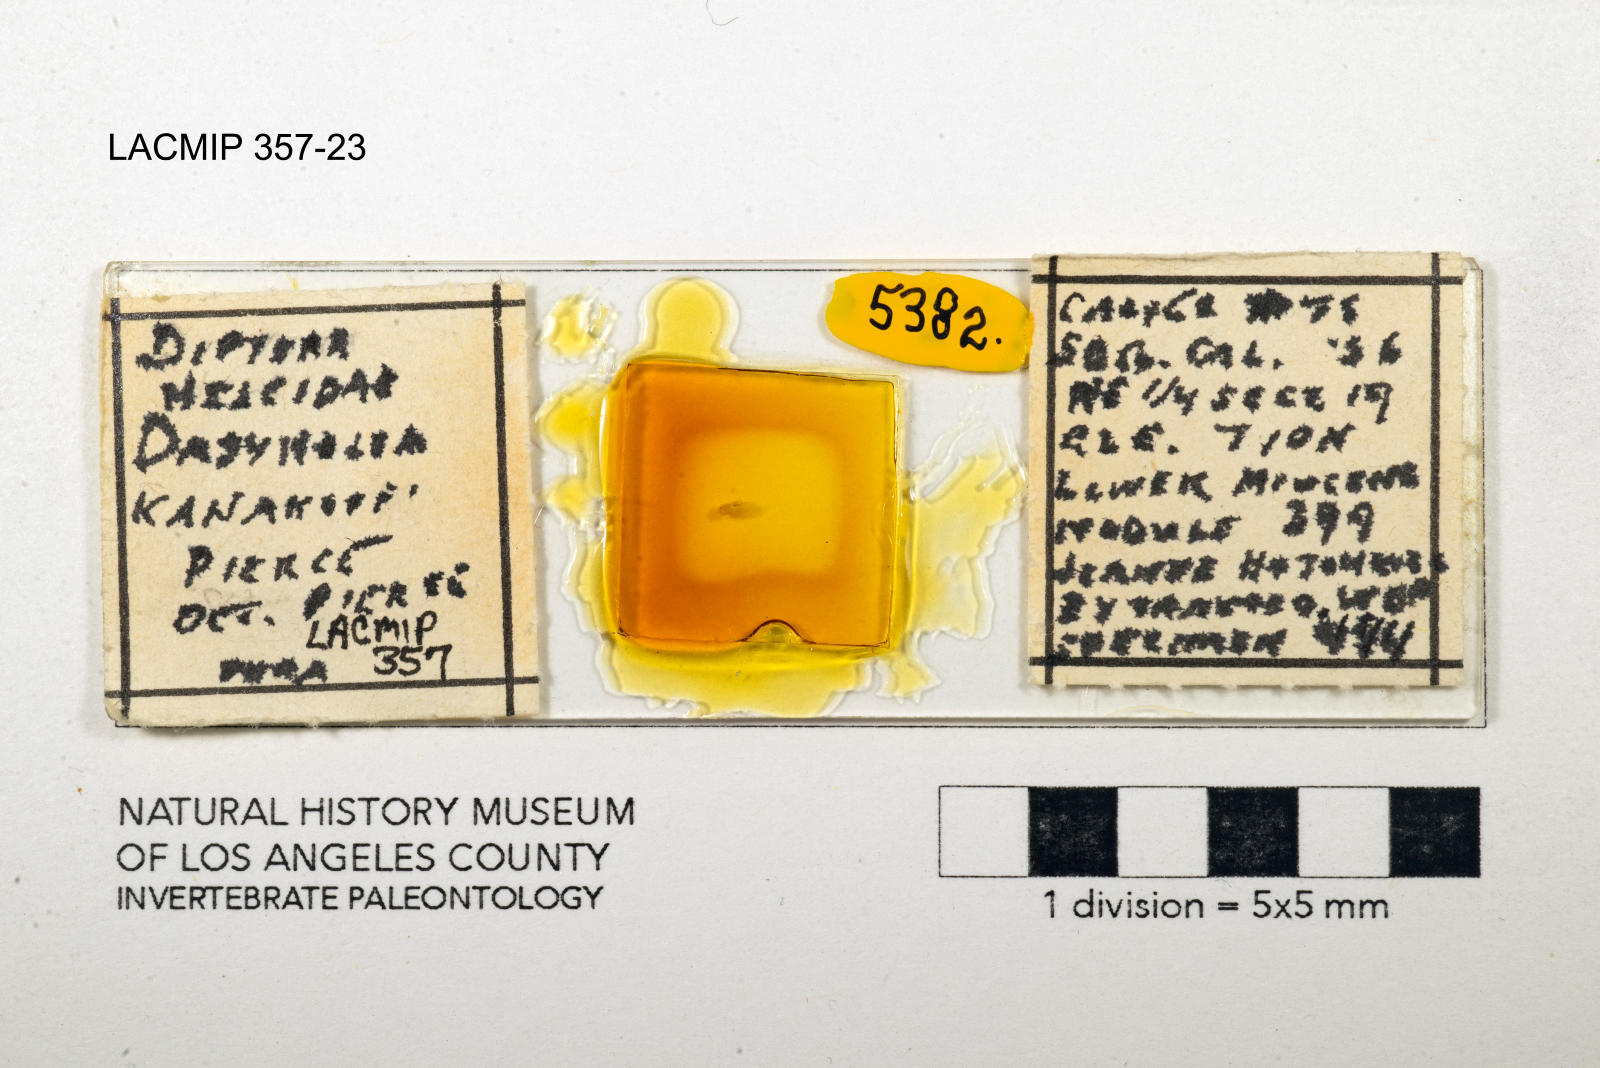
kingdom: Animalia
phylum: Arthropoda
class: Insecta
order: Diptera
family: Ceratopogonidae
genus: Dasyhelea
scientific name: Dasyhelea kanakoffi
